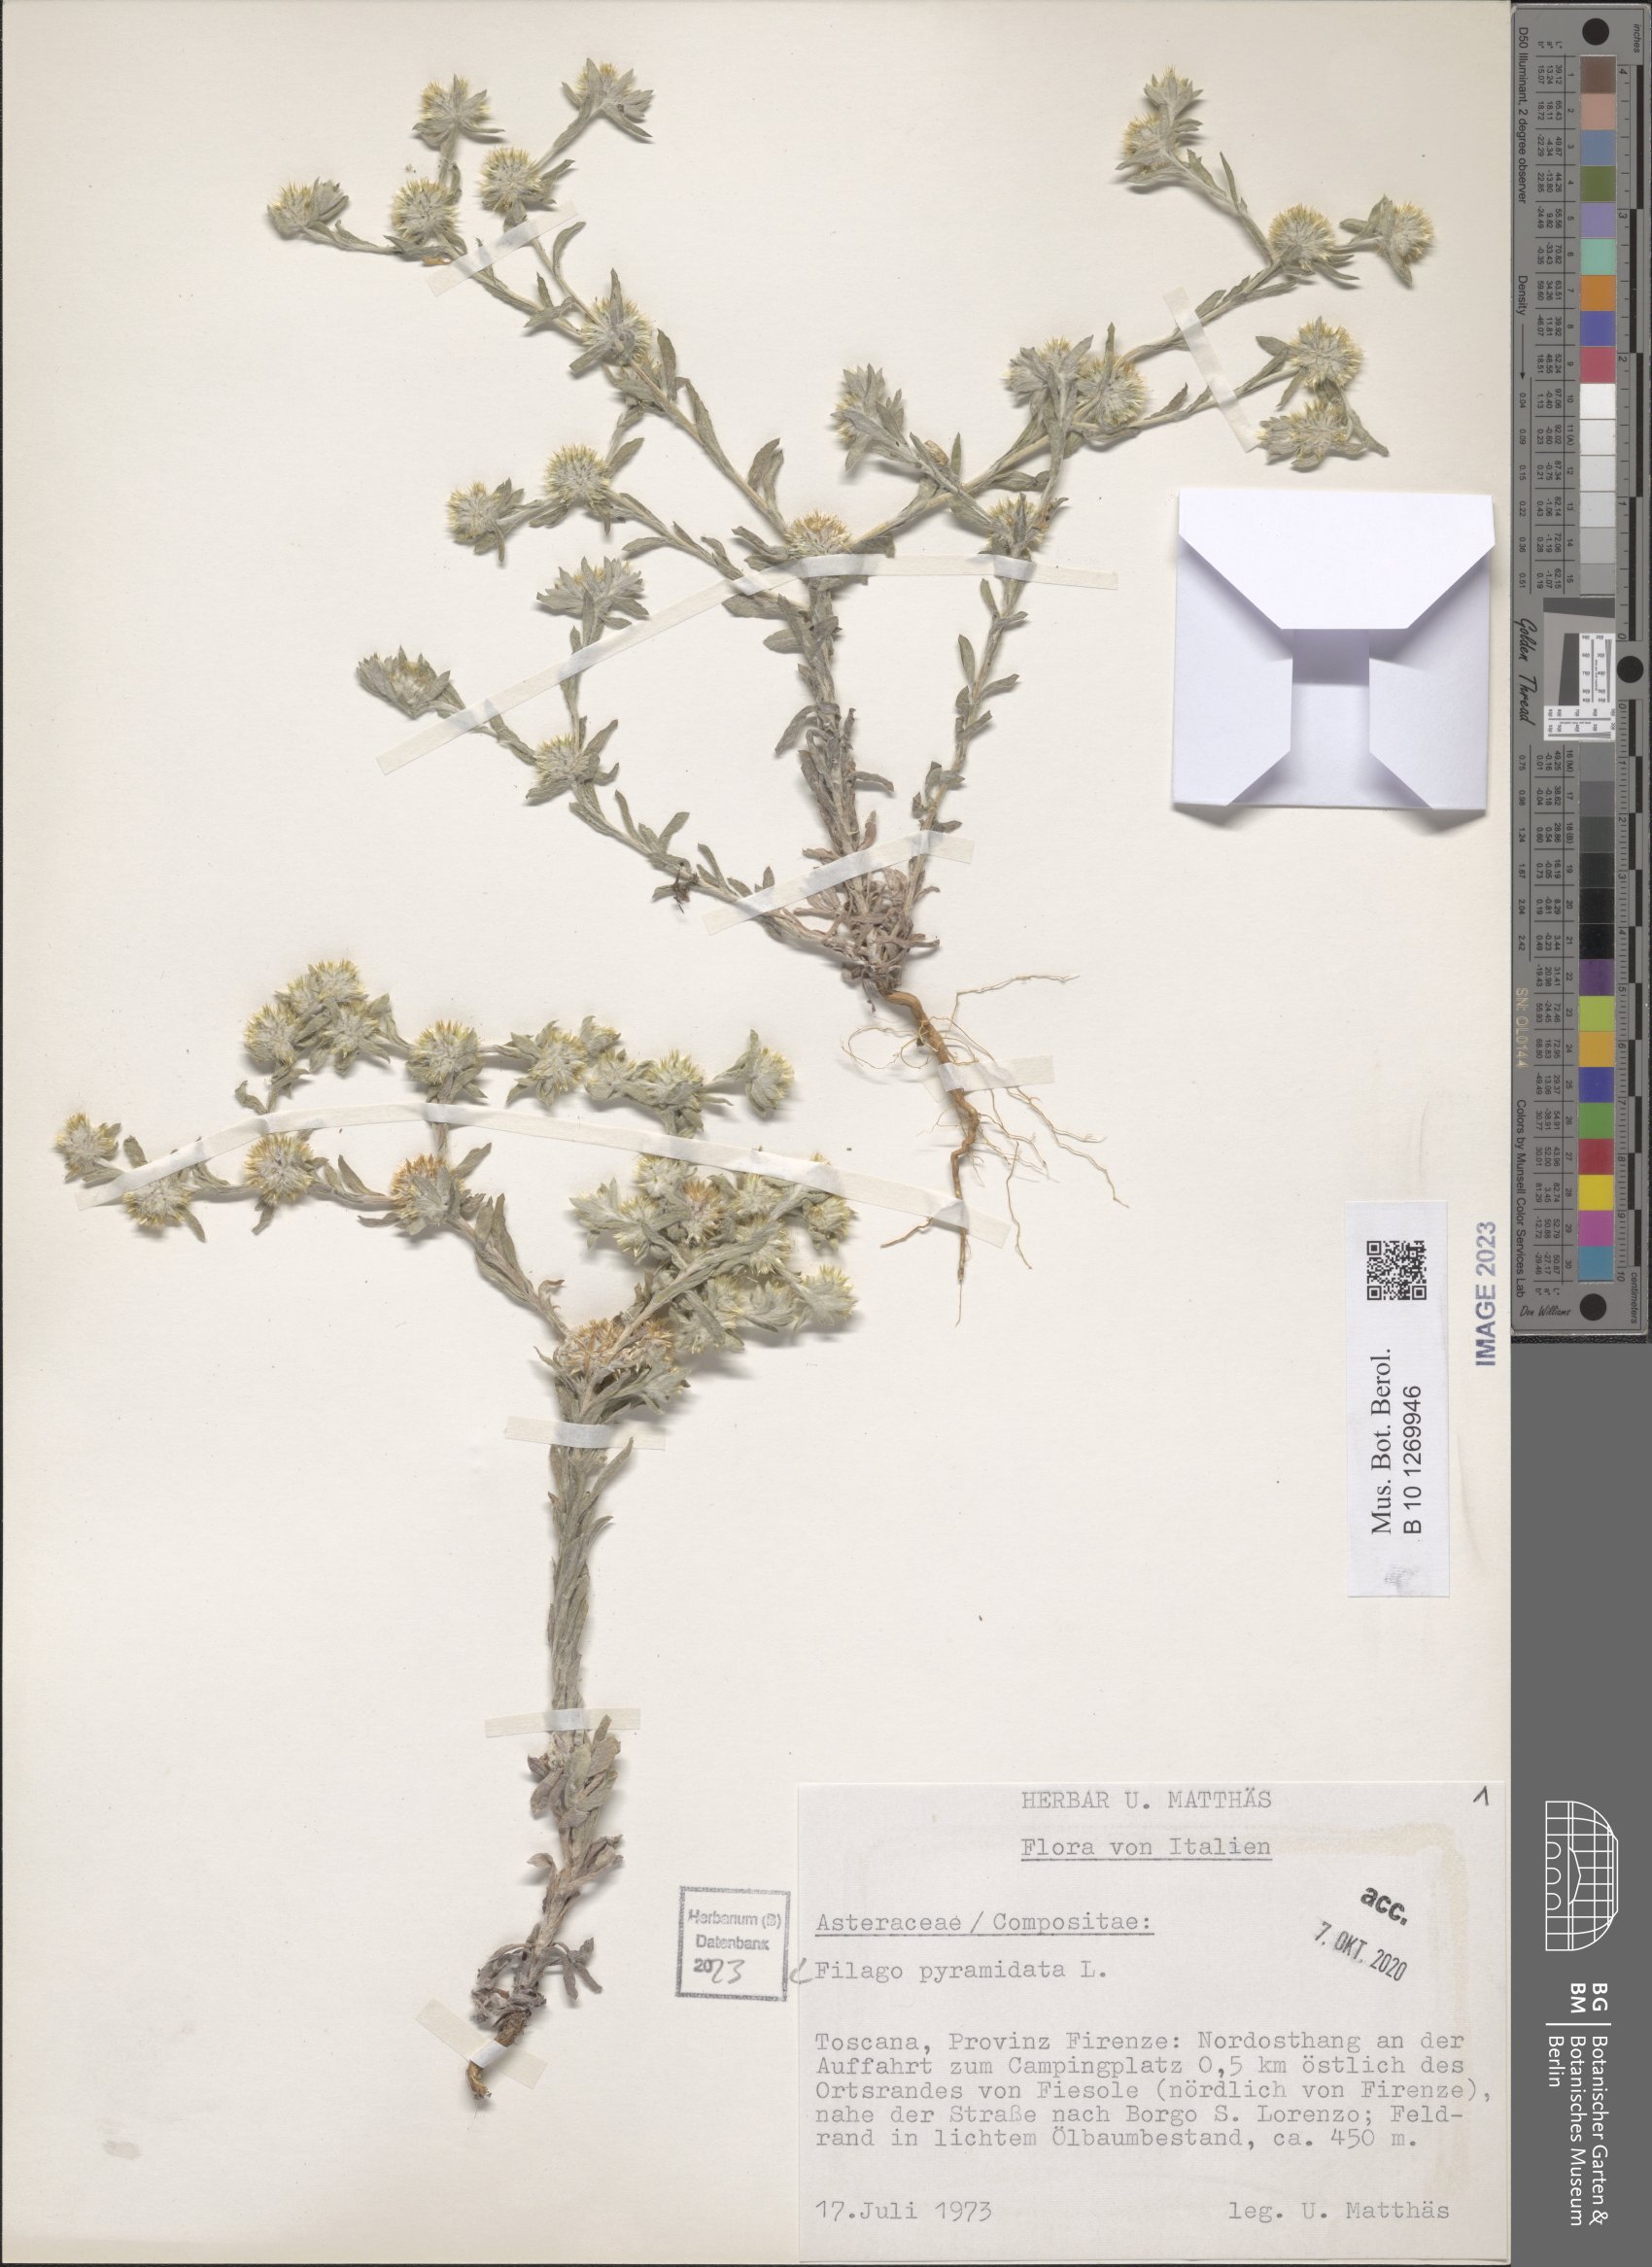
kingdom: Plantae
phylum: Tracheophyta
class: Magnoliopsida
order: Asterales
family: Asteraceae
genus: Filago
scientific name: Filago pyramidata
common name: Broad-leaved cudweed
